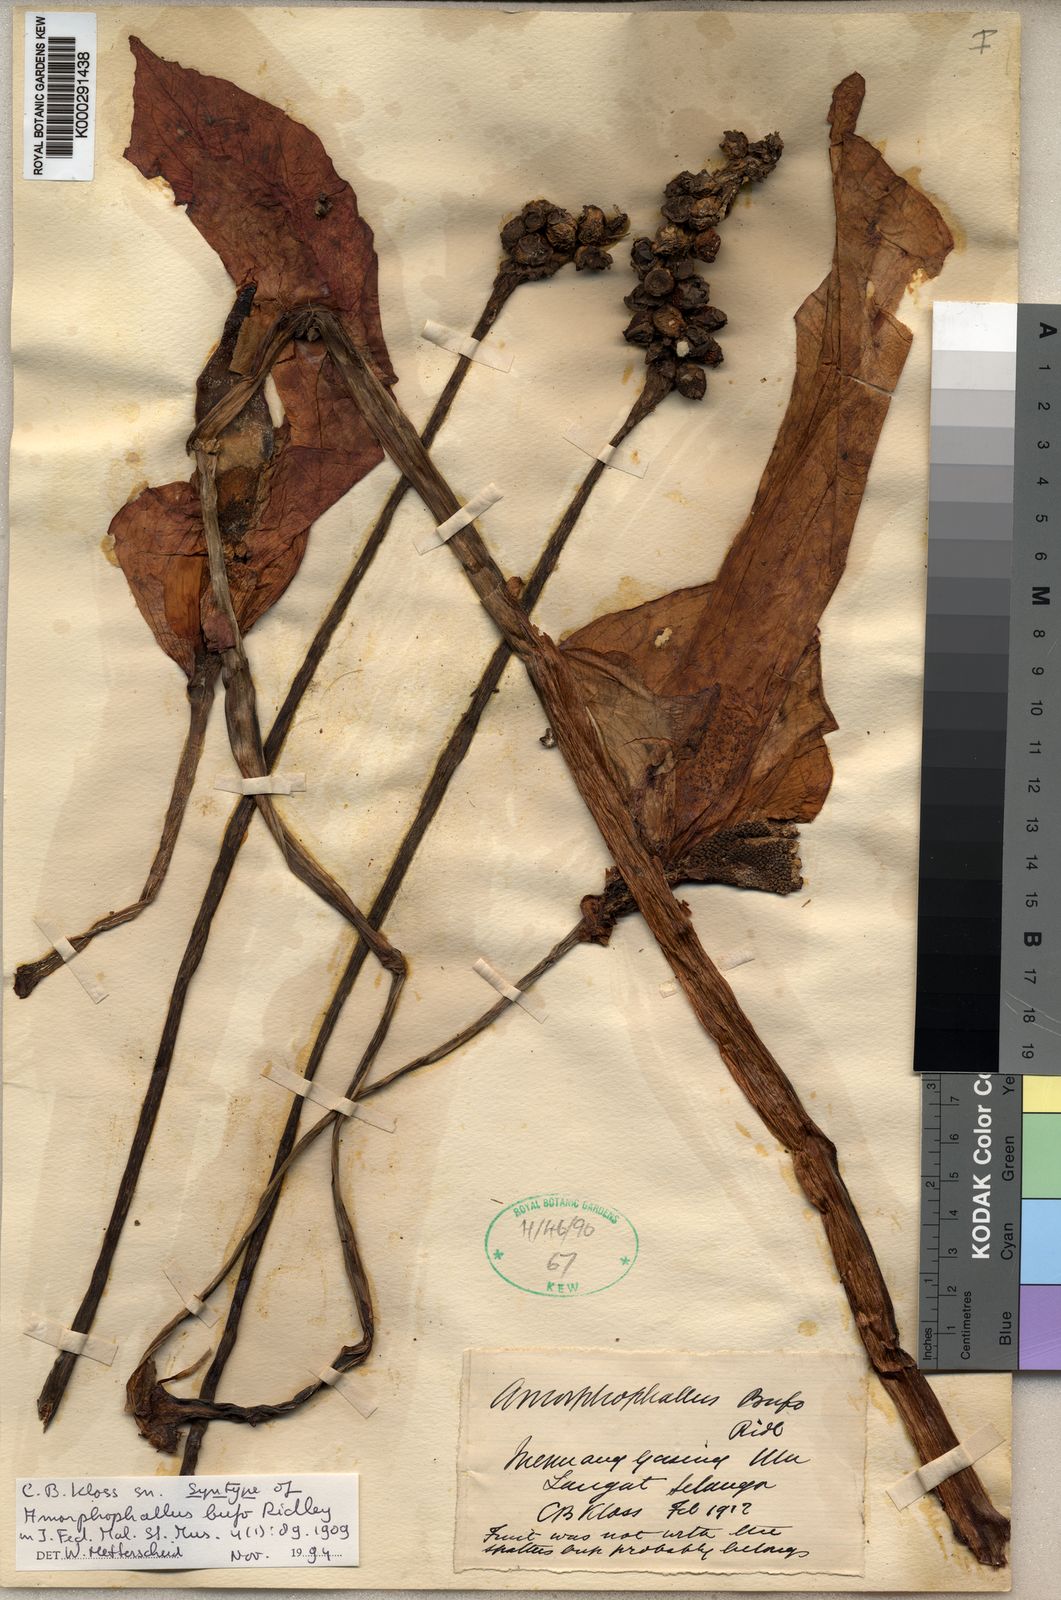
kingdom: Plantae
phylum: Tracheophyta
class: Liliopsida
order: Alismatales
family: Araceae
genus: Amorphophallus
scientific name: Amorphophallus bufo
